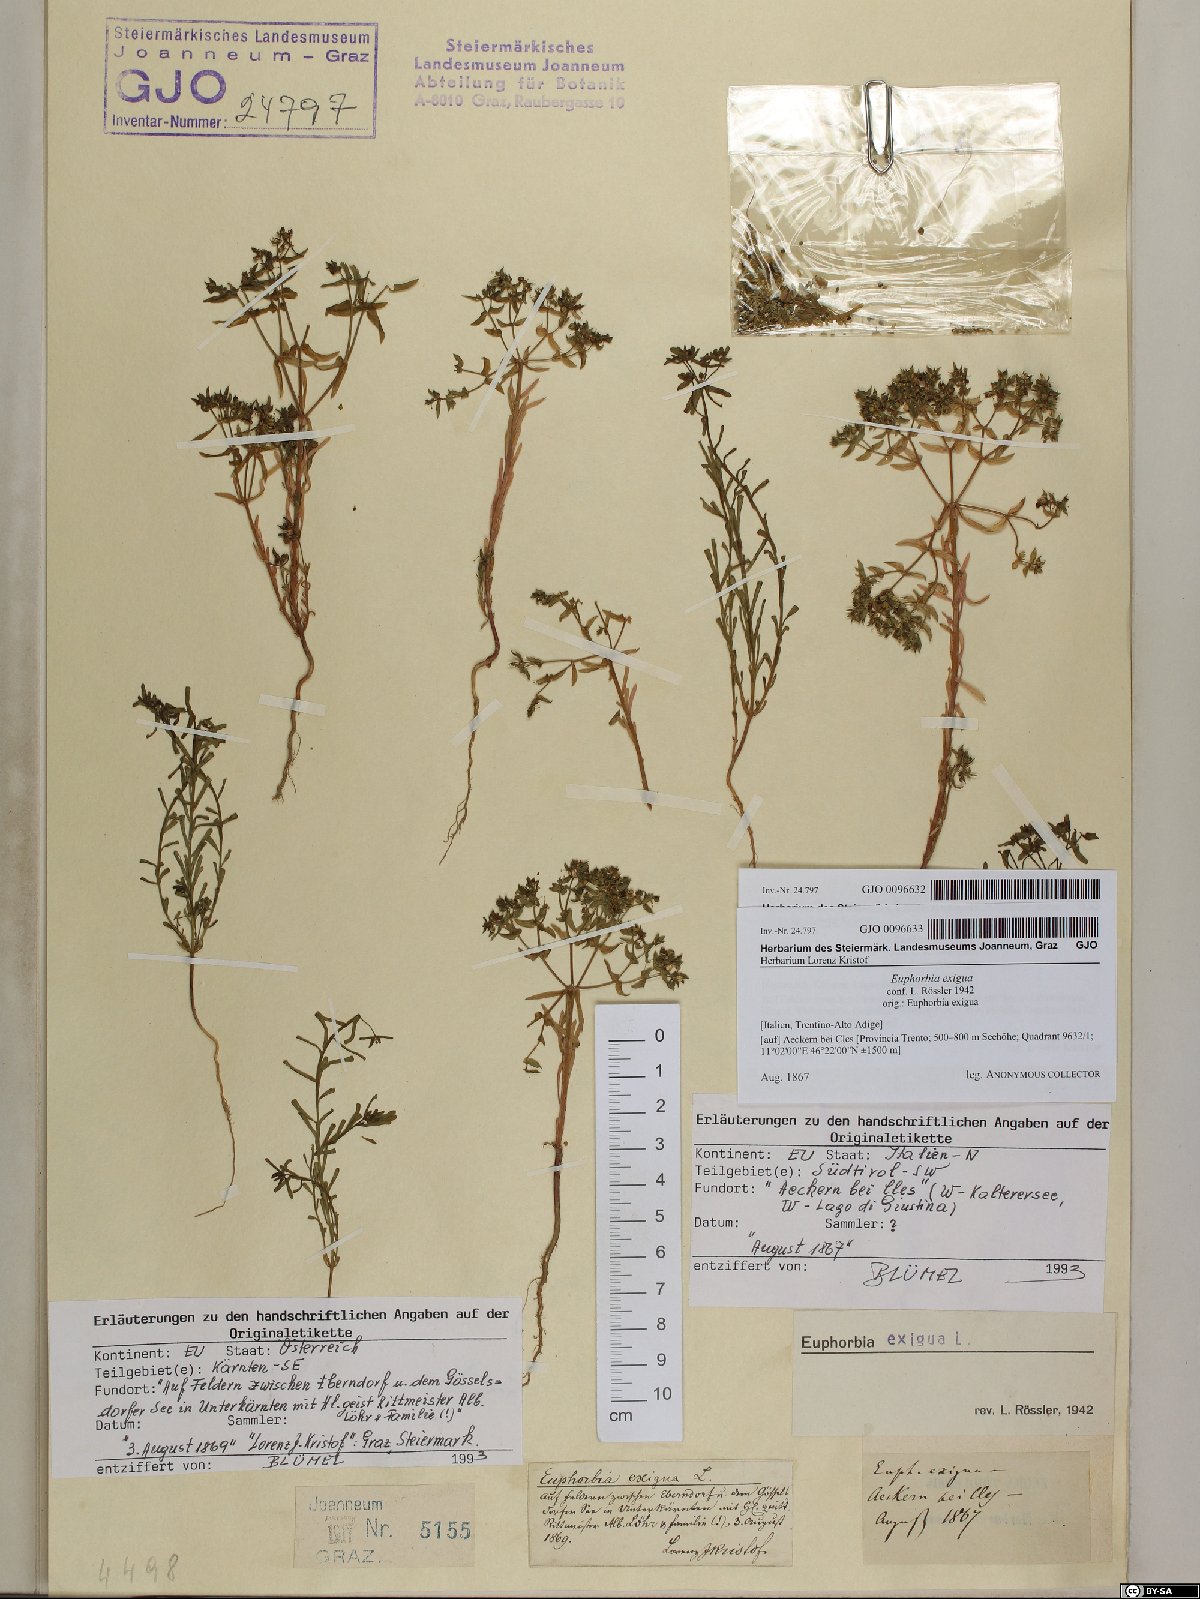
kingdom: Plantae
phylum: Tracheophyta
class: Magnoliopsida
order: Malpighiales
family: Euphorbiaceae
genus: Euphorbia
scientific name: Euphorbia exigua
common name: Dwarf spurge
